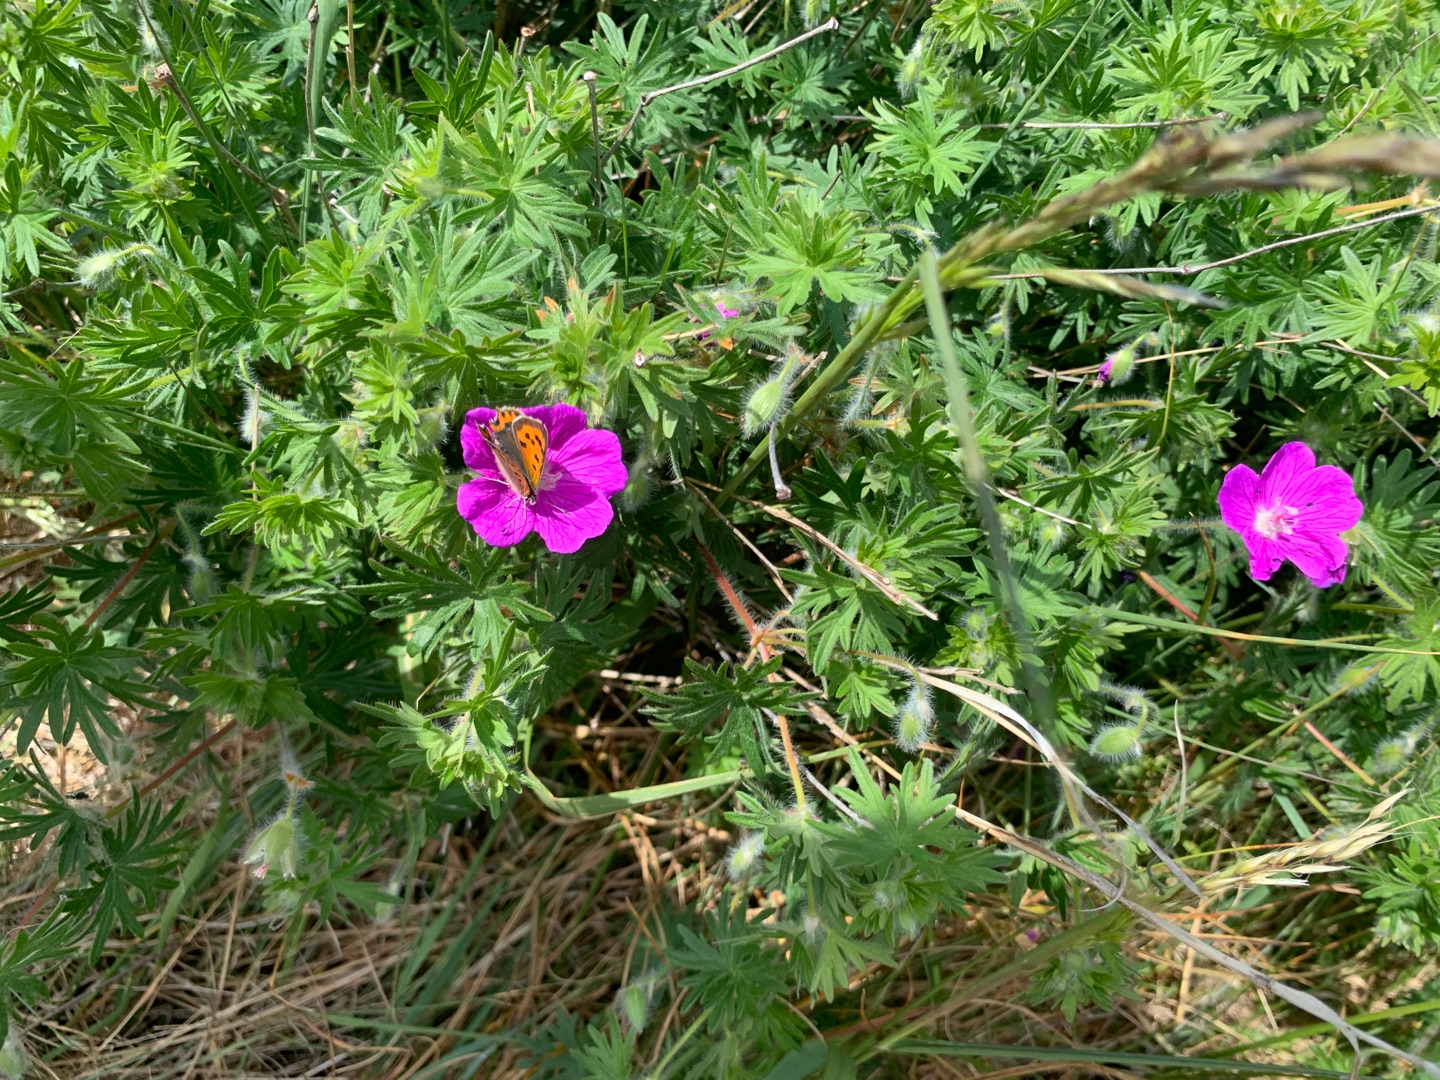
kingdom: Animalia
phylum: Arthropoda
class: Insecta
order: Lepidoptera
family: Lycaenidae
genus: Lycaena
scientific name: Lycaena phlaeas
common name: Lille ildfugl
